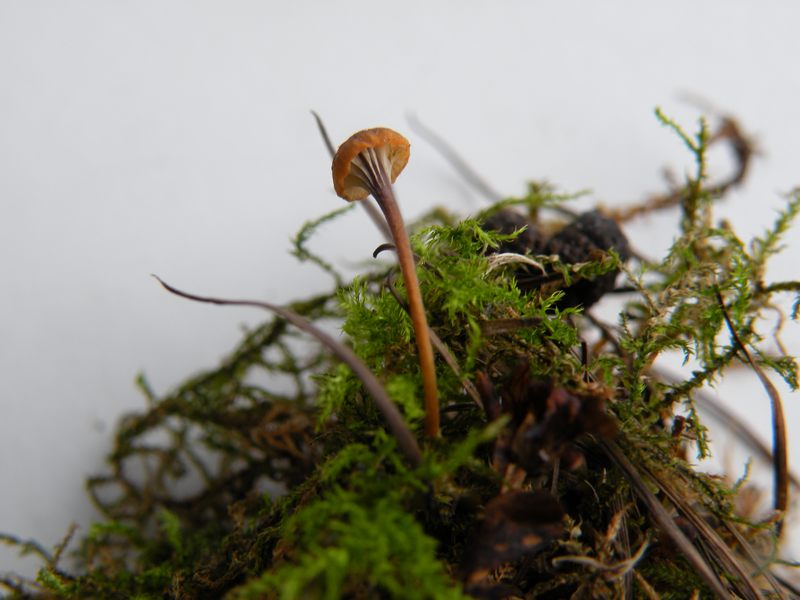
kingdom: Fungi
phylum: Basidiomycota
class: Agaricomycetes
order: Hymenochaetales
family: Rickenellaceae
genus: Rickenella
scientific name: Rickenella swartzii
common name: finstokket mosnavlehat
